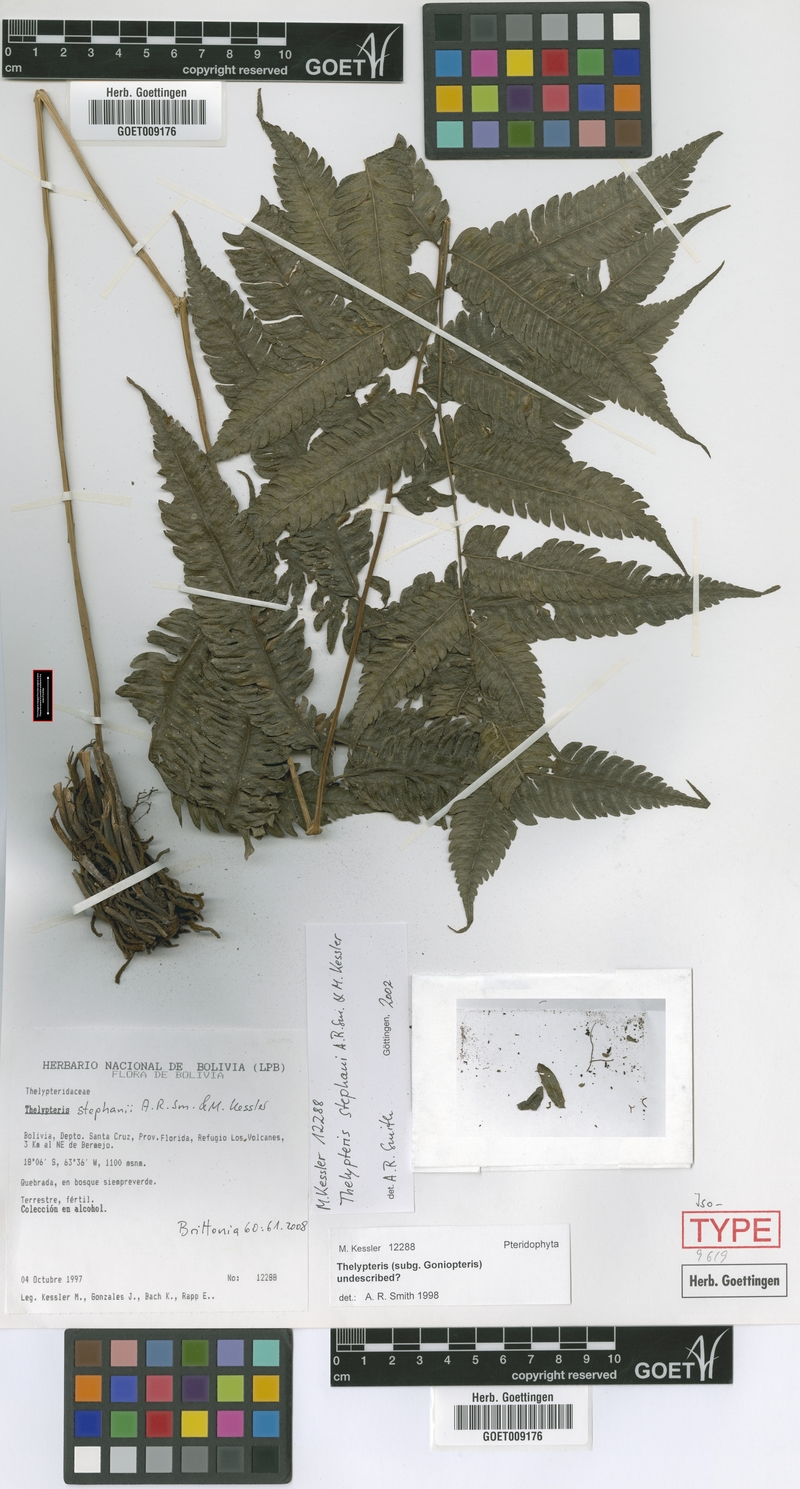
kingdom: Plantae
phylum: Tracheophyta
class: Polypodiopsida
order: Polypodiales
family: Thelypteridaceae
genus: Goniopteris
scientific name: Goniopteris stephanii
